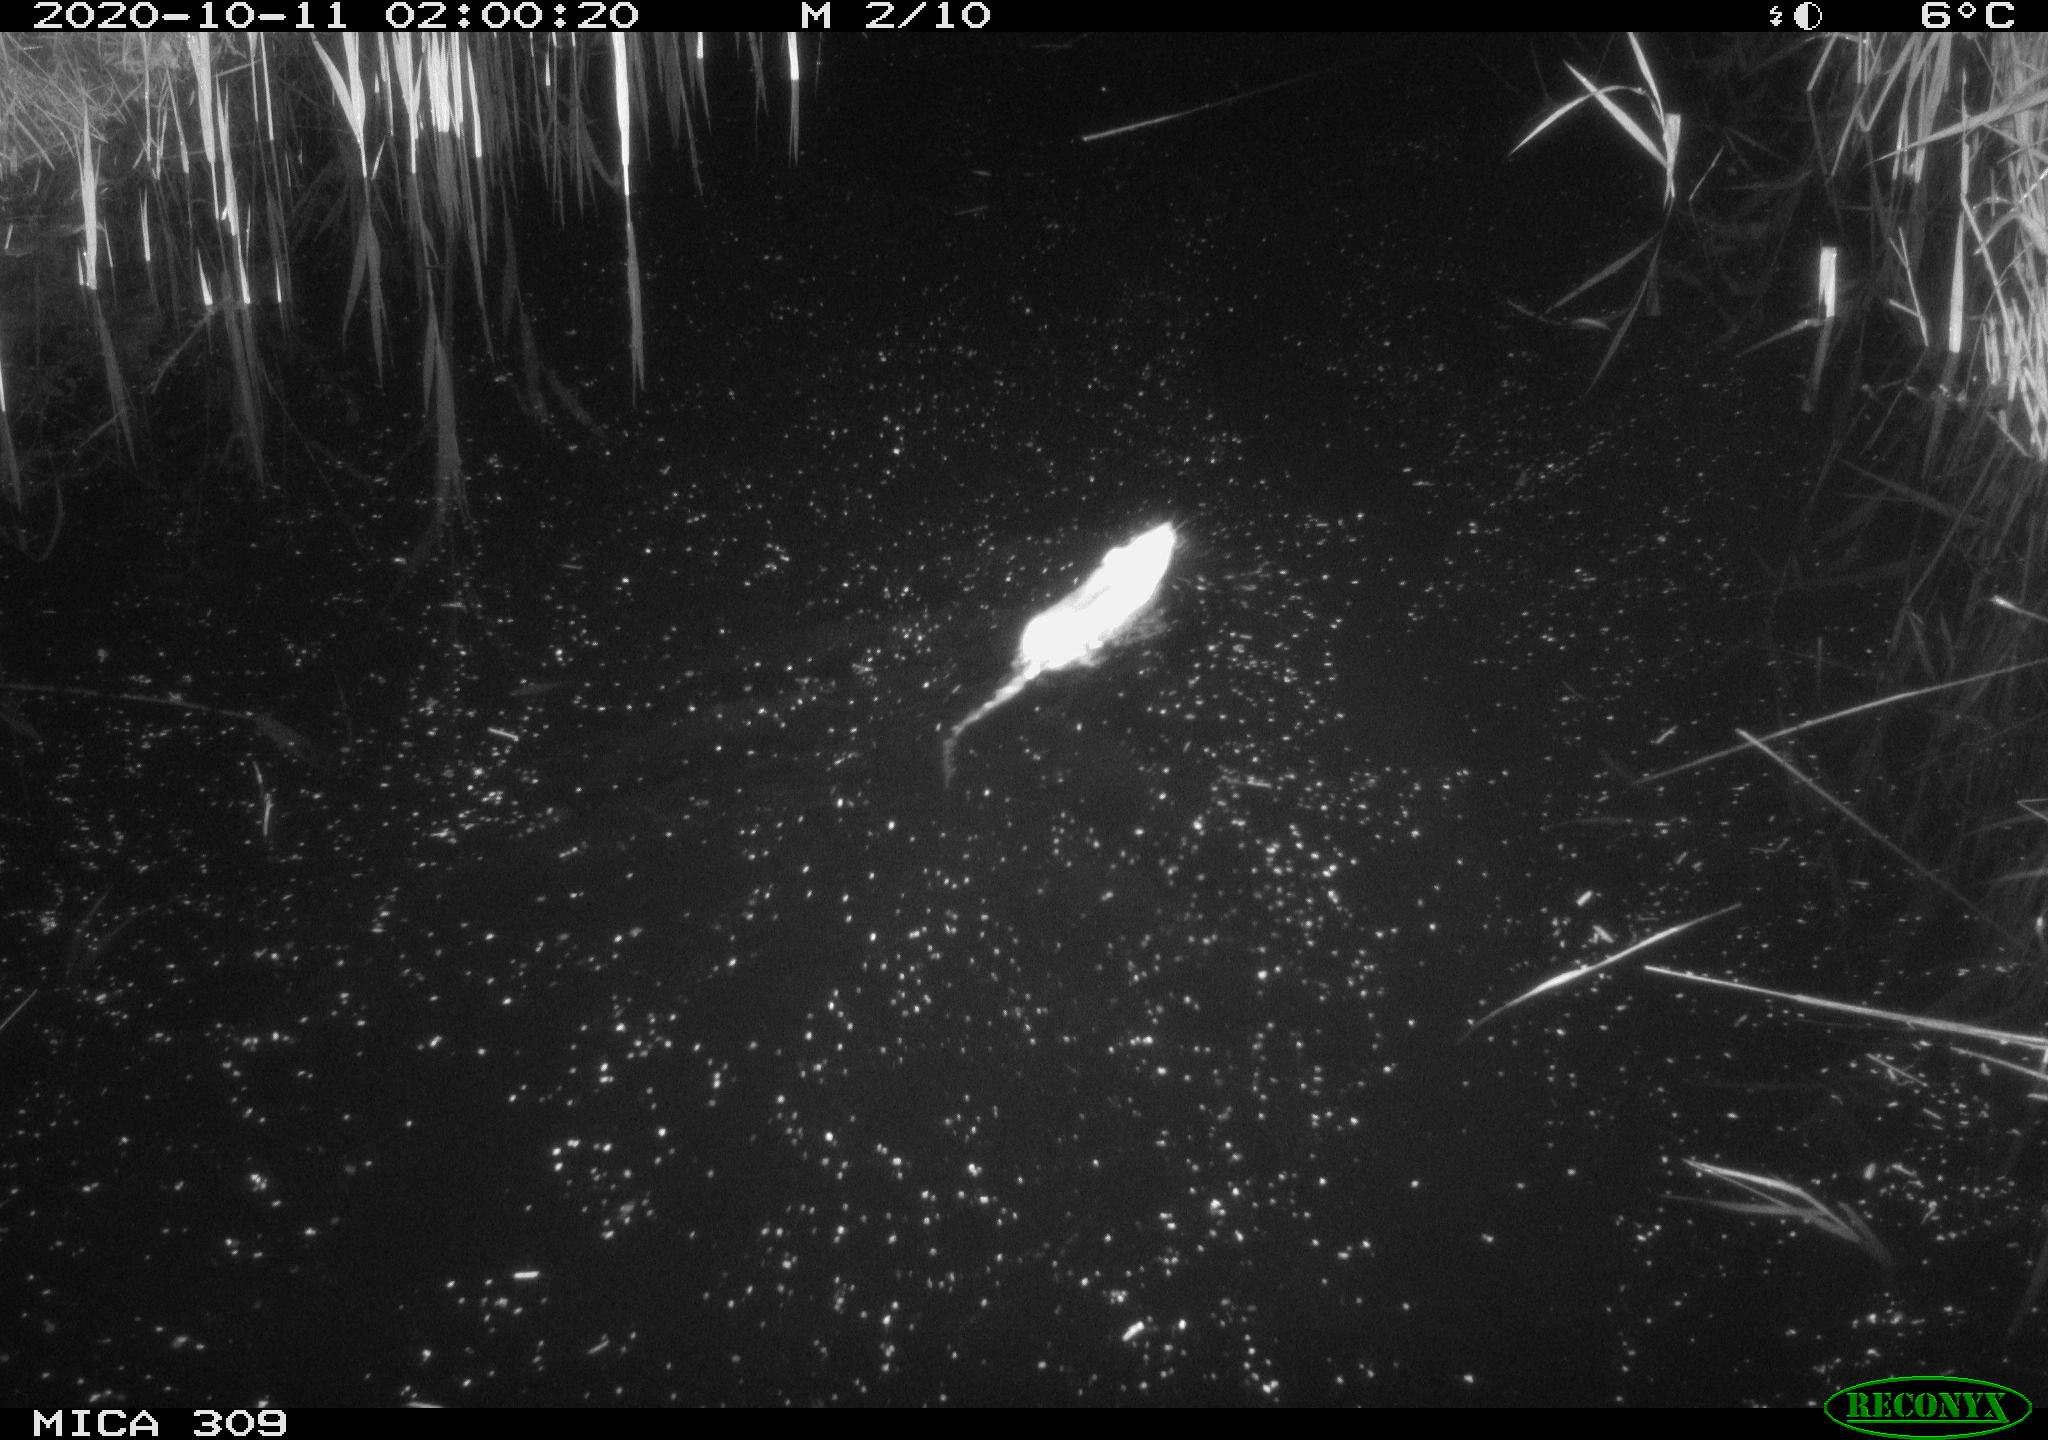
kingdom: Animalia
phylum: Chordata
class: Mammalia
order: Rodentia
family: Muridae
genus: Rattus
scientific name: Rattus norvegicus
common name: Brown rat
